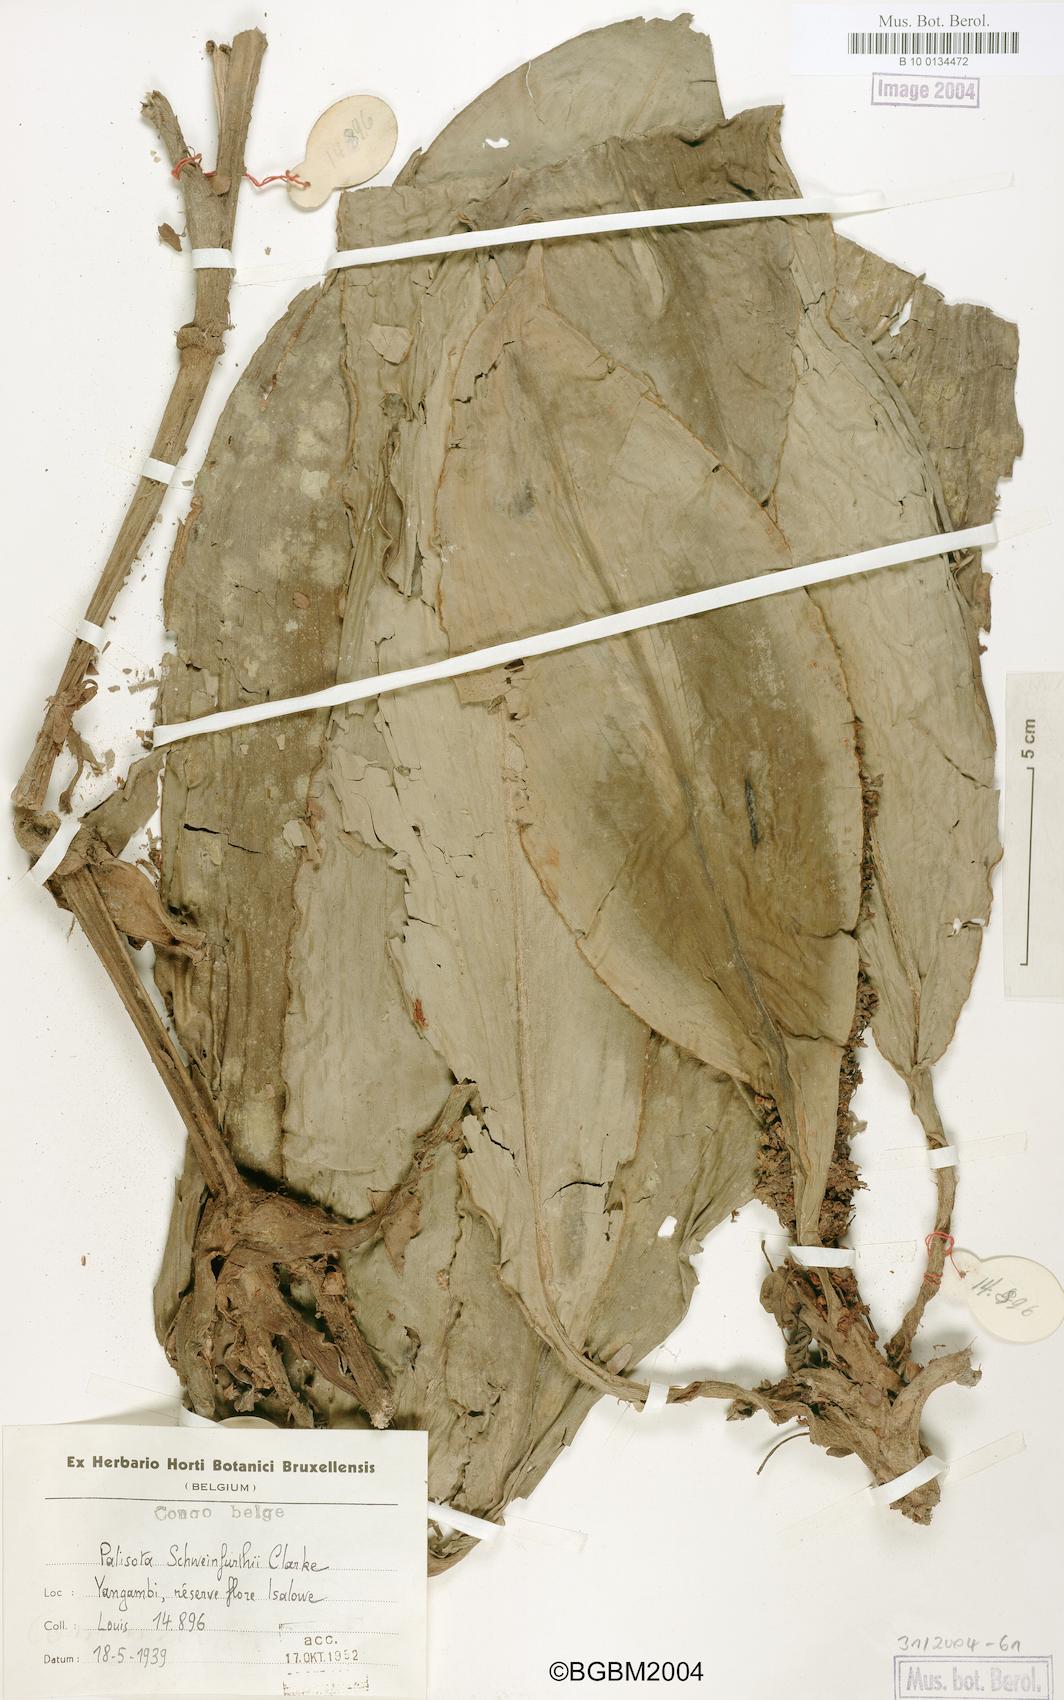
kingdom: Plantae
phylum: Tracheophyta
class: Liliopsida
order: Commelinales
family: Commelinaceae
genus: Palisota
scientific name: Palisota schweinfurthii
